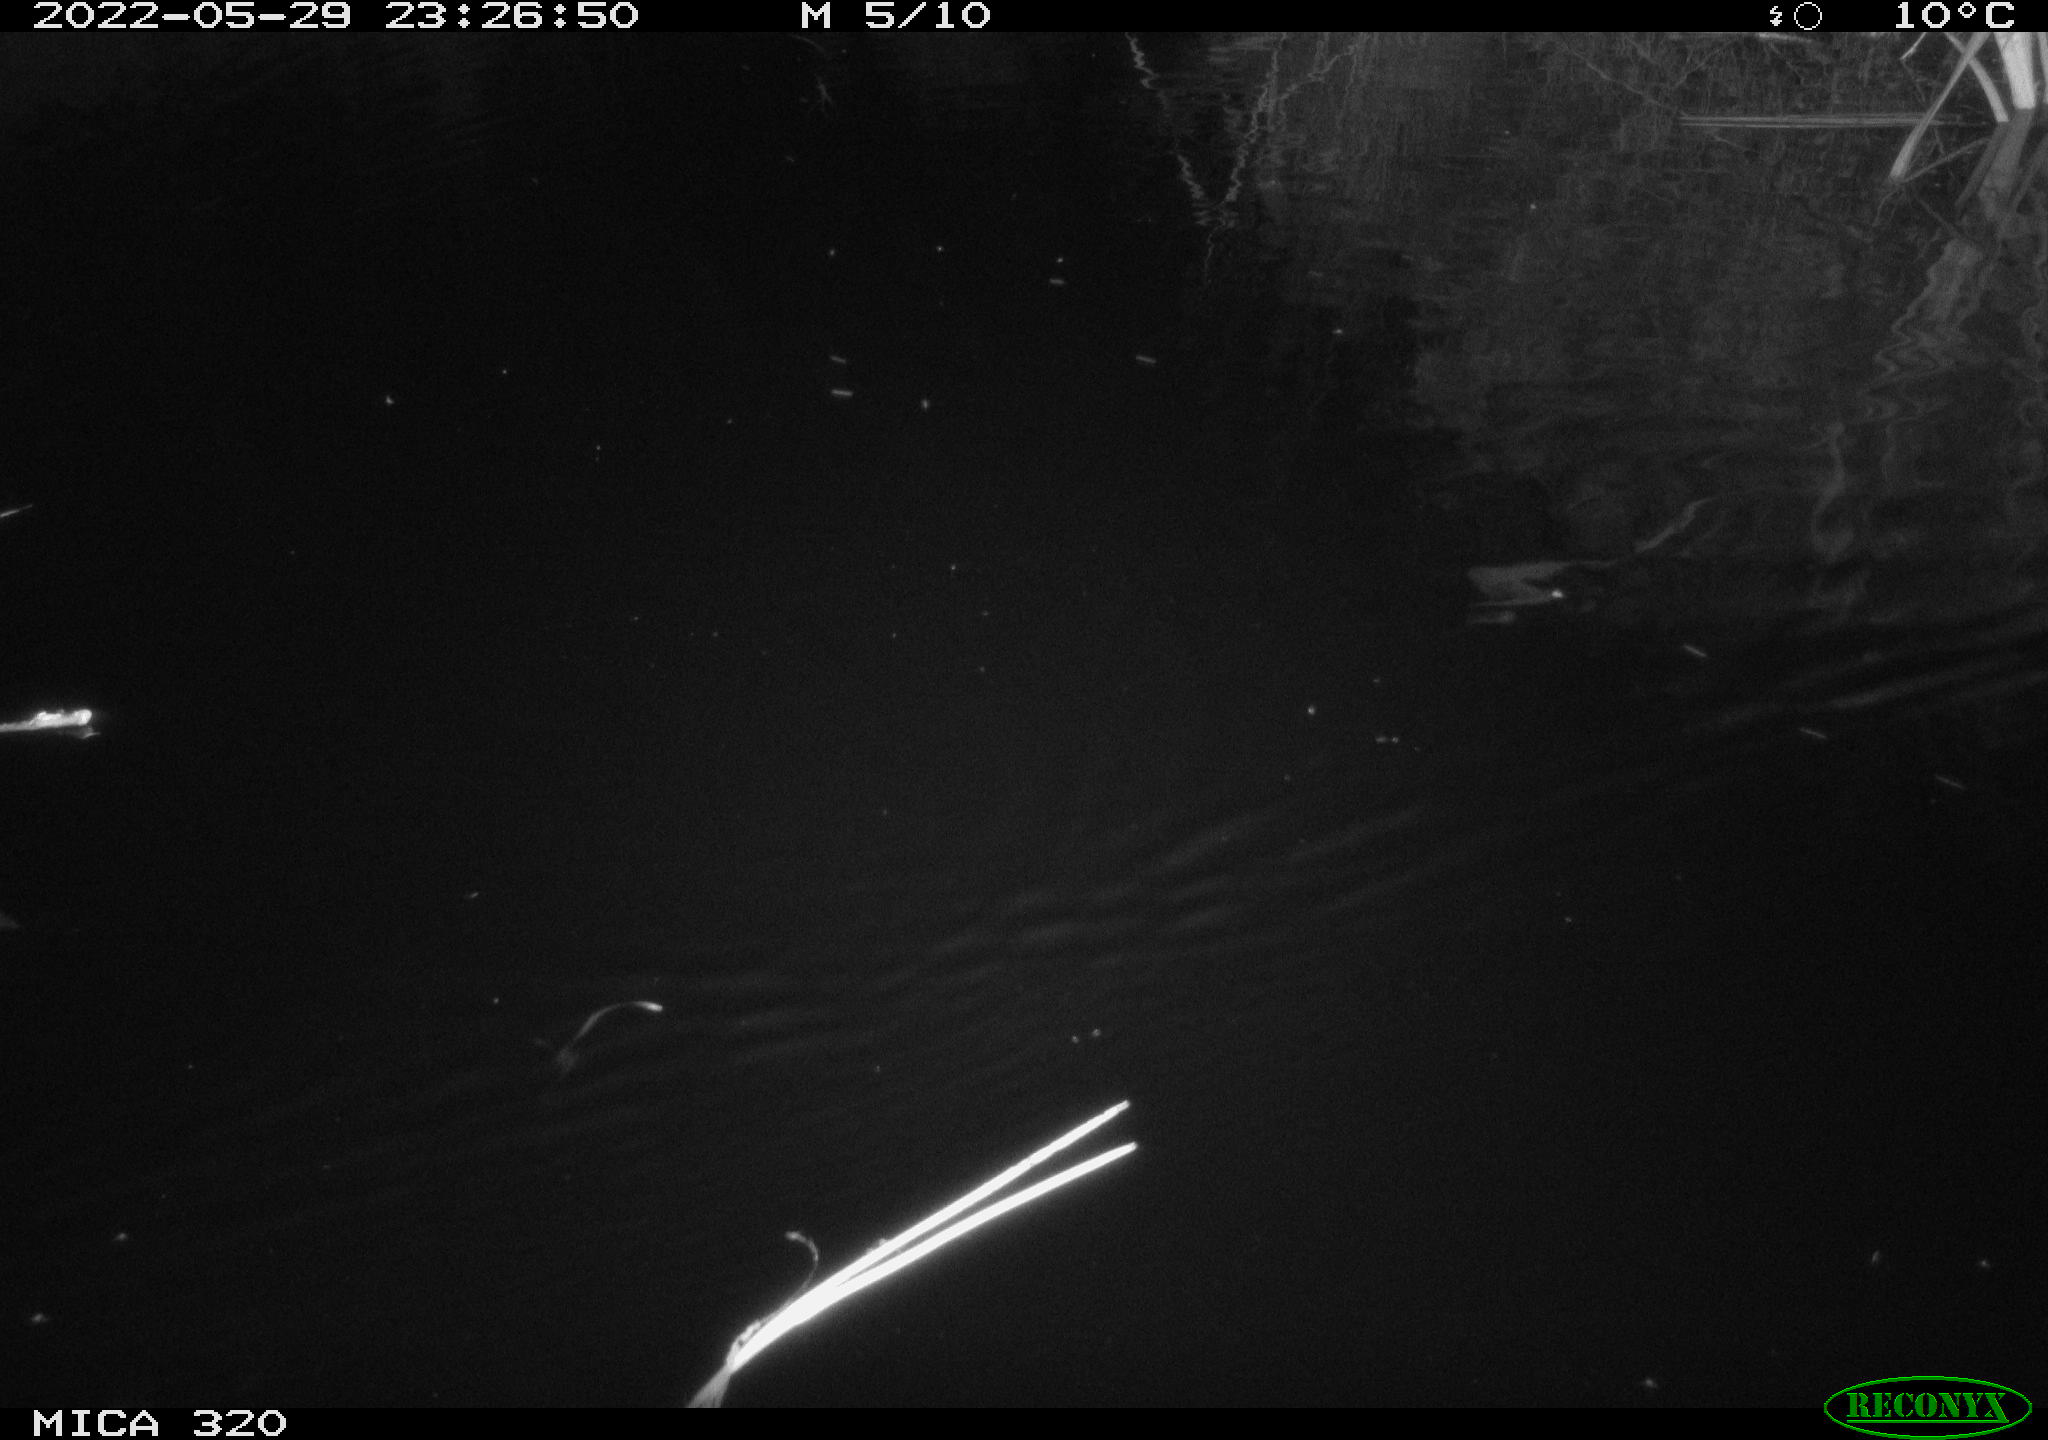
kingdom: Animalia
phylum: Chordata
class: Mammalia
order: Rodentia
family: Muridae
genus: Rattus
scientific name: Rattus norvegicus
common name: Brown rat
